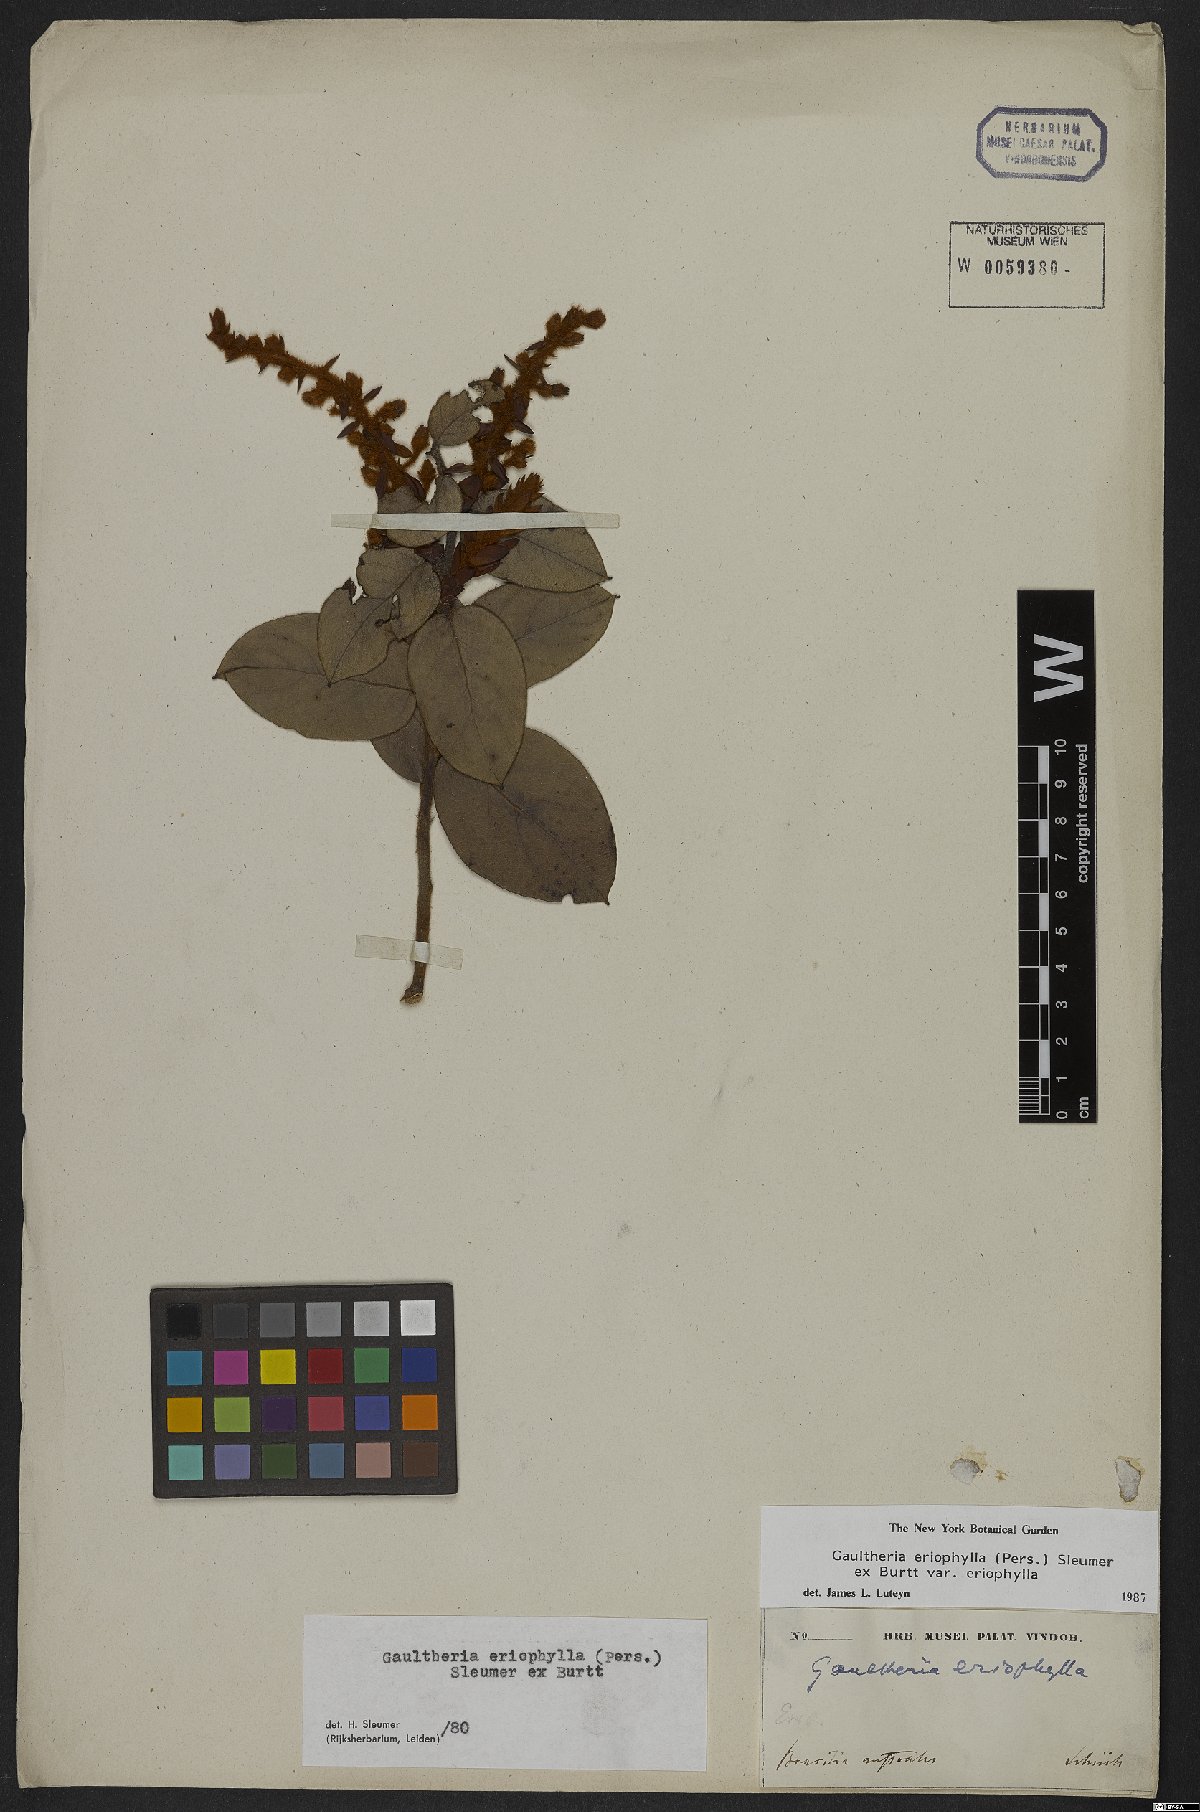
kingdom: Plantae
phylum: Tracheophyta
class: Magnoliopsida
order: Ericales
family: Ericaceae
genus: Gaultheria
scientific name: Gaultheria eriophylla
